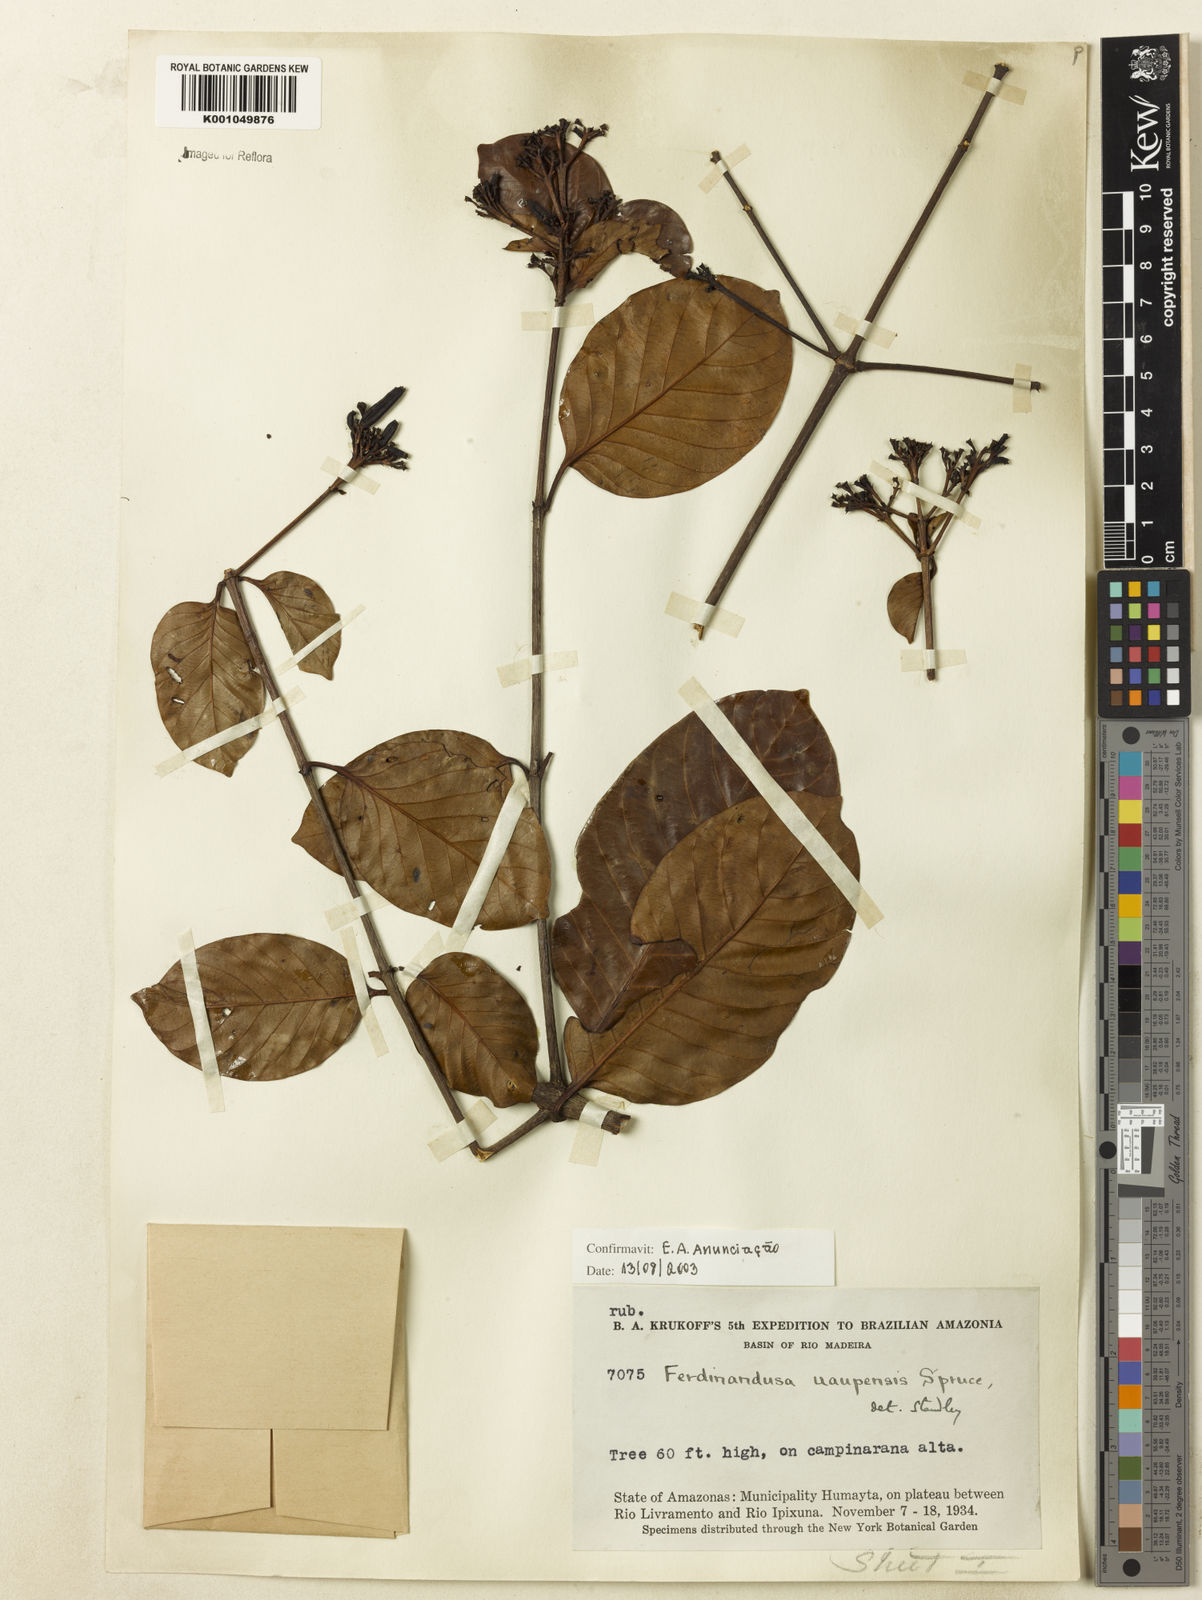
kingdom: Plantae
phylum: Tracheophyta
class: Magnoliopsida
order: Gentianales
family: Rubiaceae
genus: Ferdinandusa
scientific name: Ferdinandusa uaupensis
